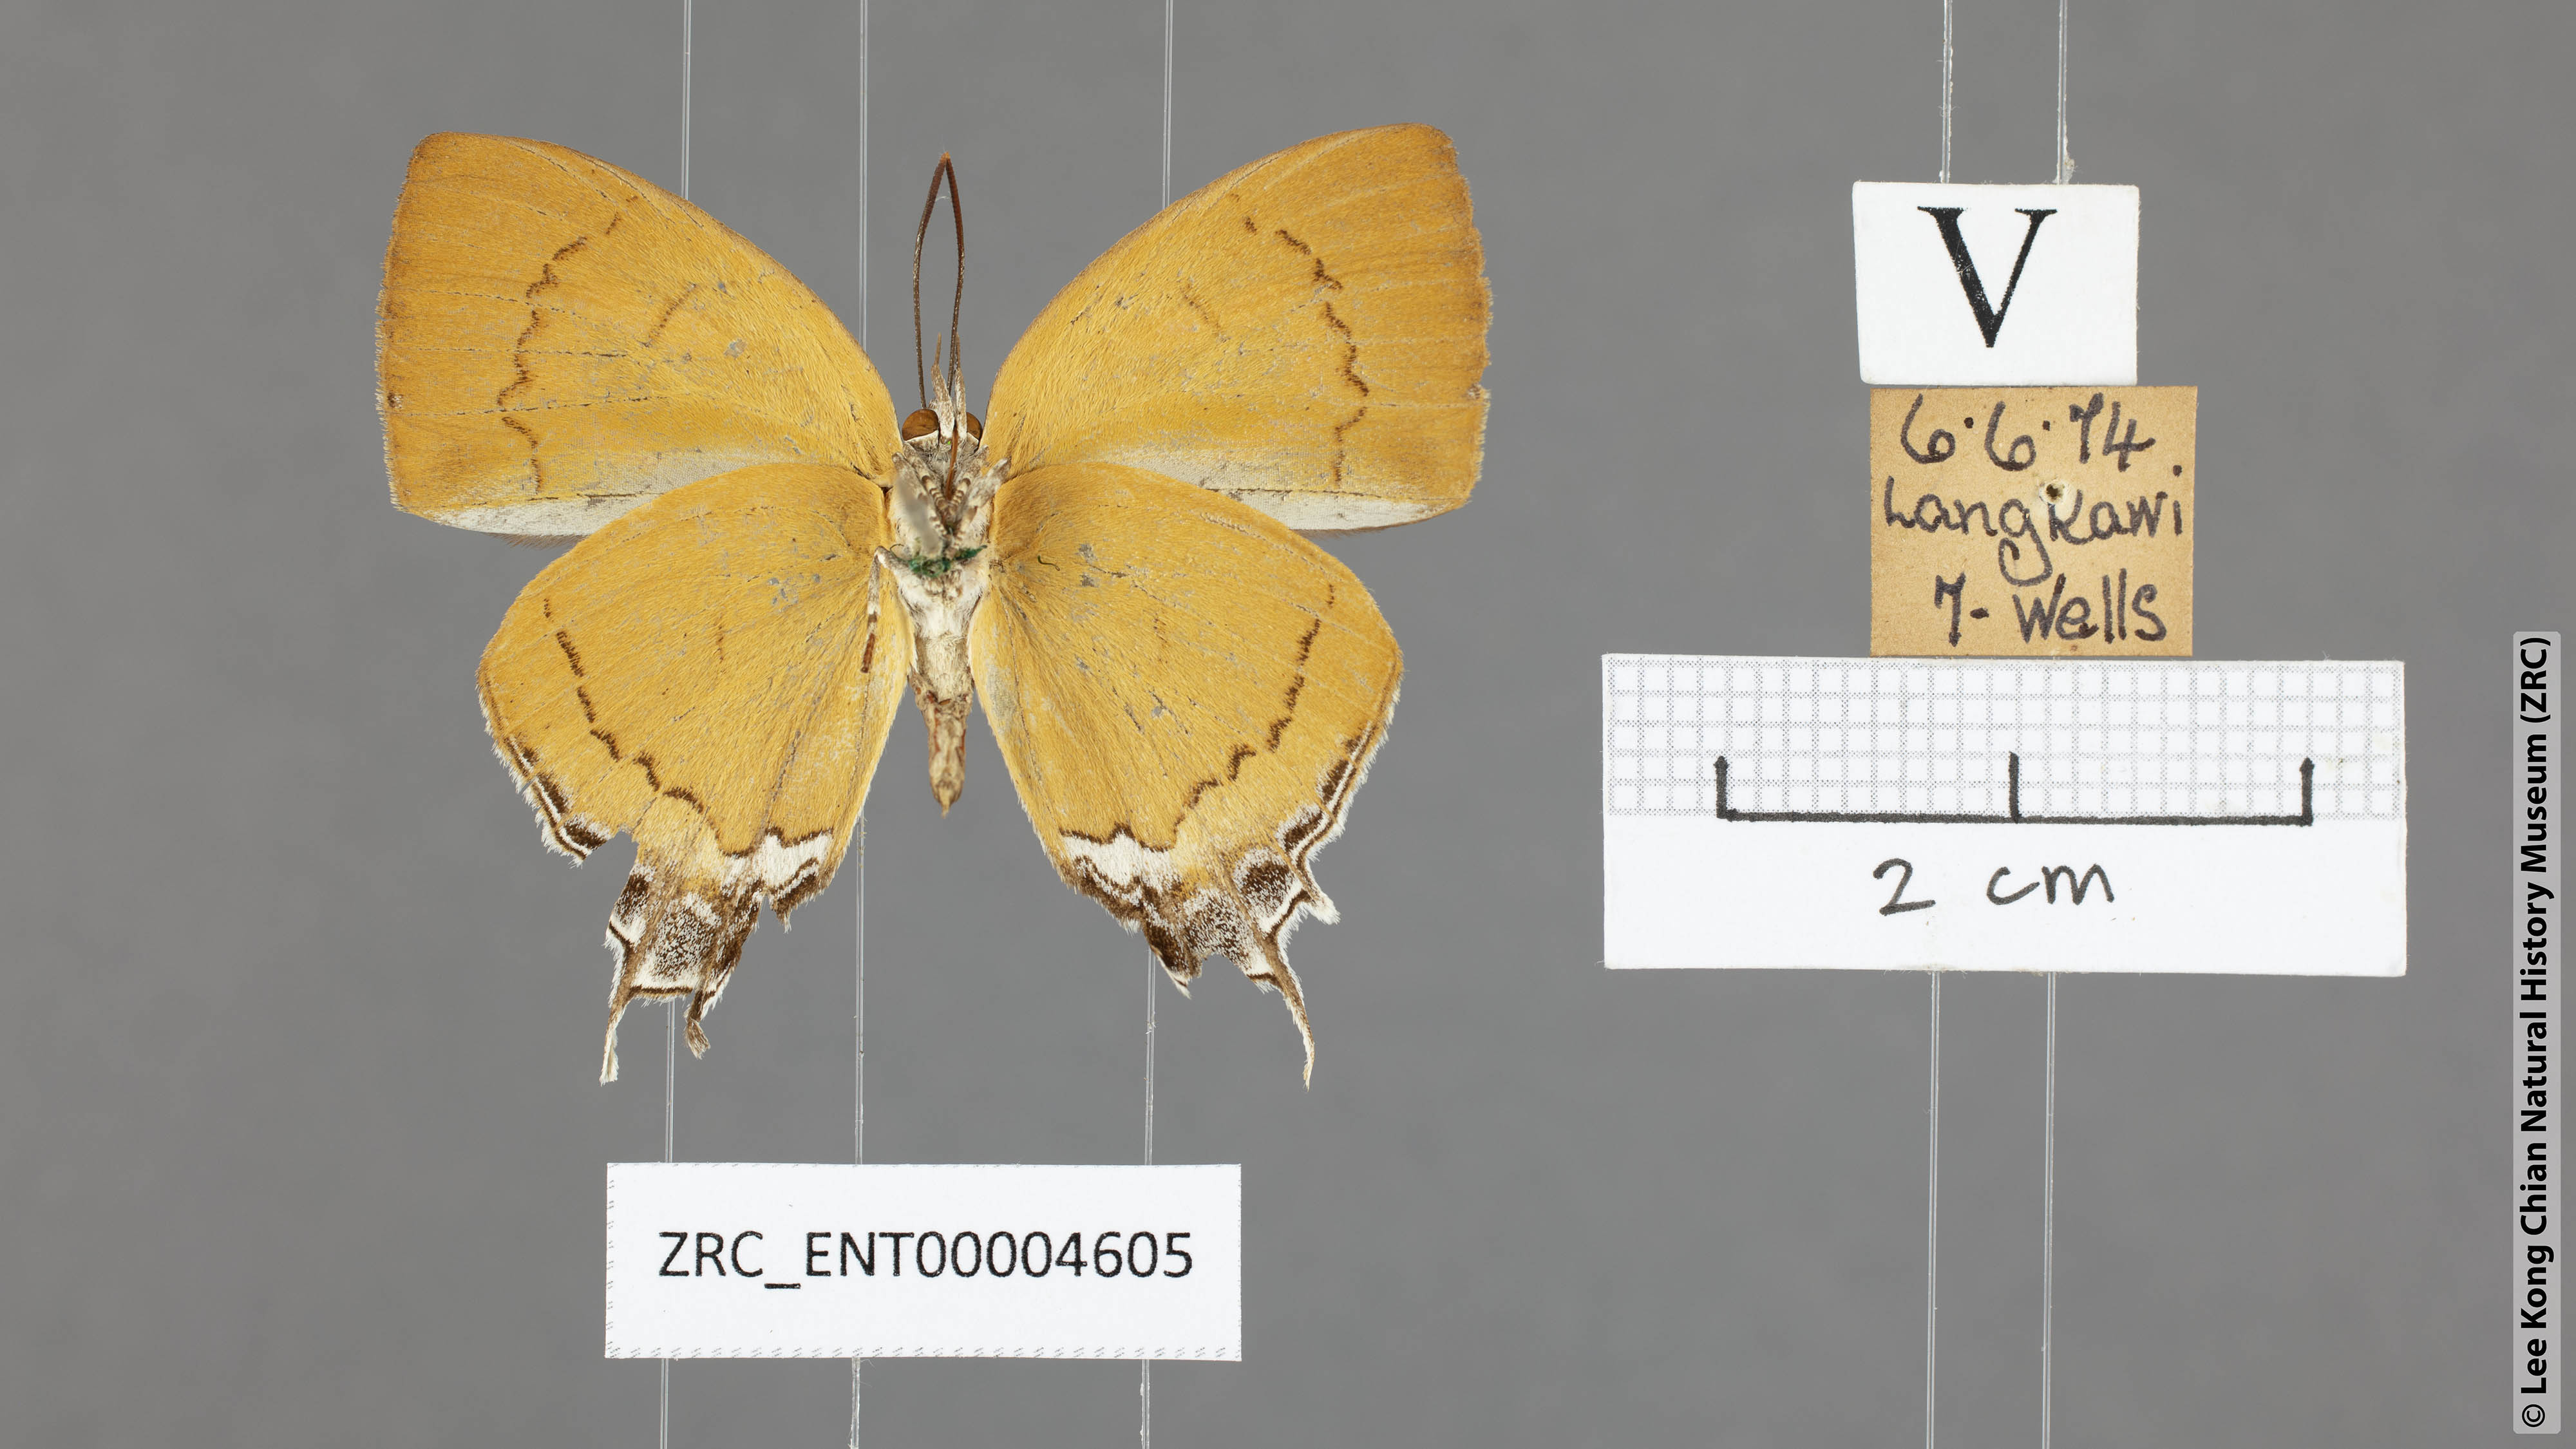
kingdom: Animalia
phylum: Arthropoda
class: Insecta
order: Lepidoptera
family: Lycaenidae
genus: Thamala
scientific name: Thamala marciana
